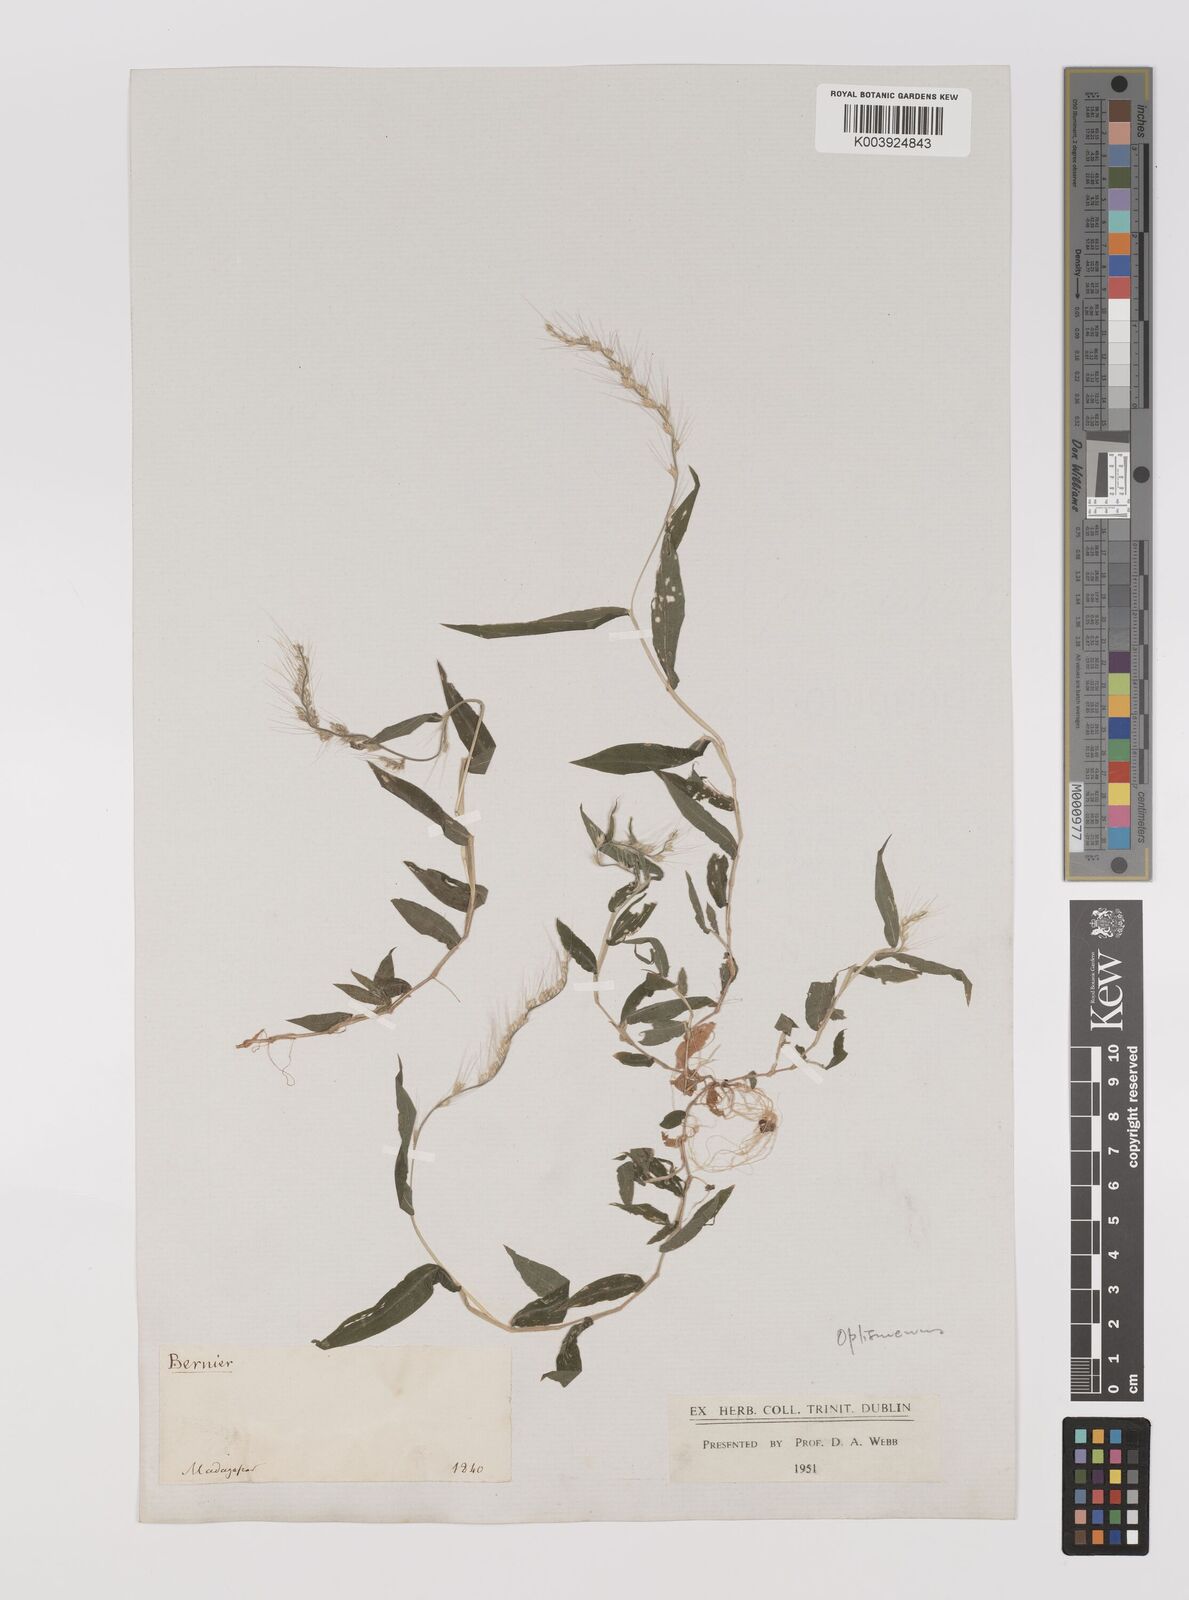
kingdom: Plantae
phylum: Tracheophyta
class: Liliopsida
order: Poales
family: Poaceae
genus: Oplismenus
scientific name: Oplismenus burmanni
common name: Burmann's basketgrass
